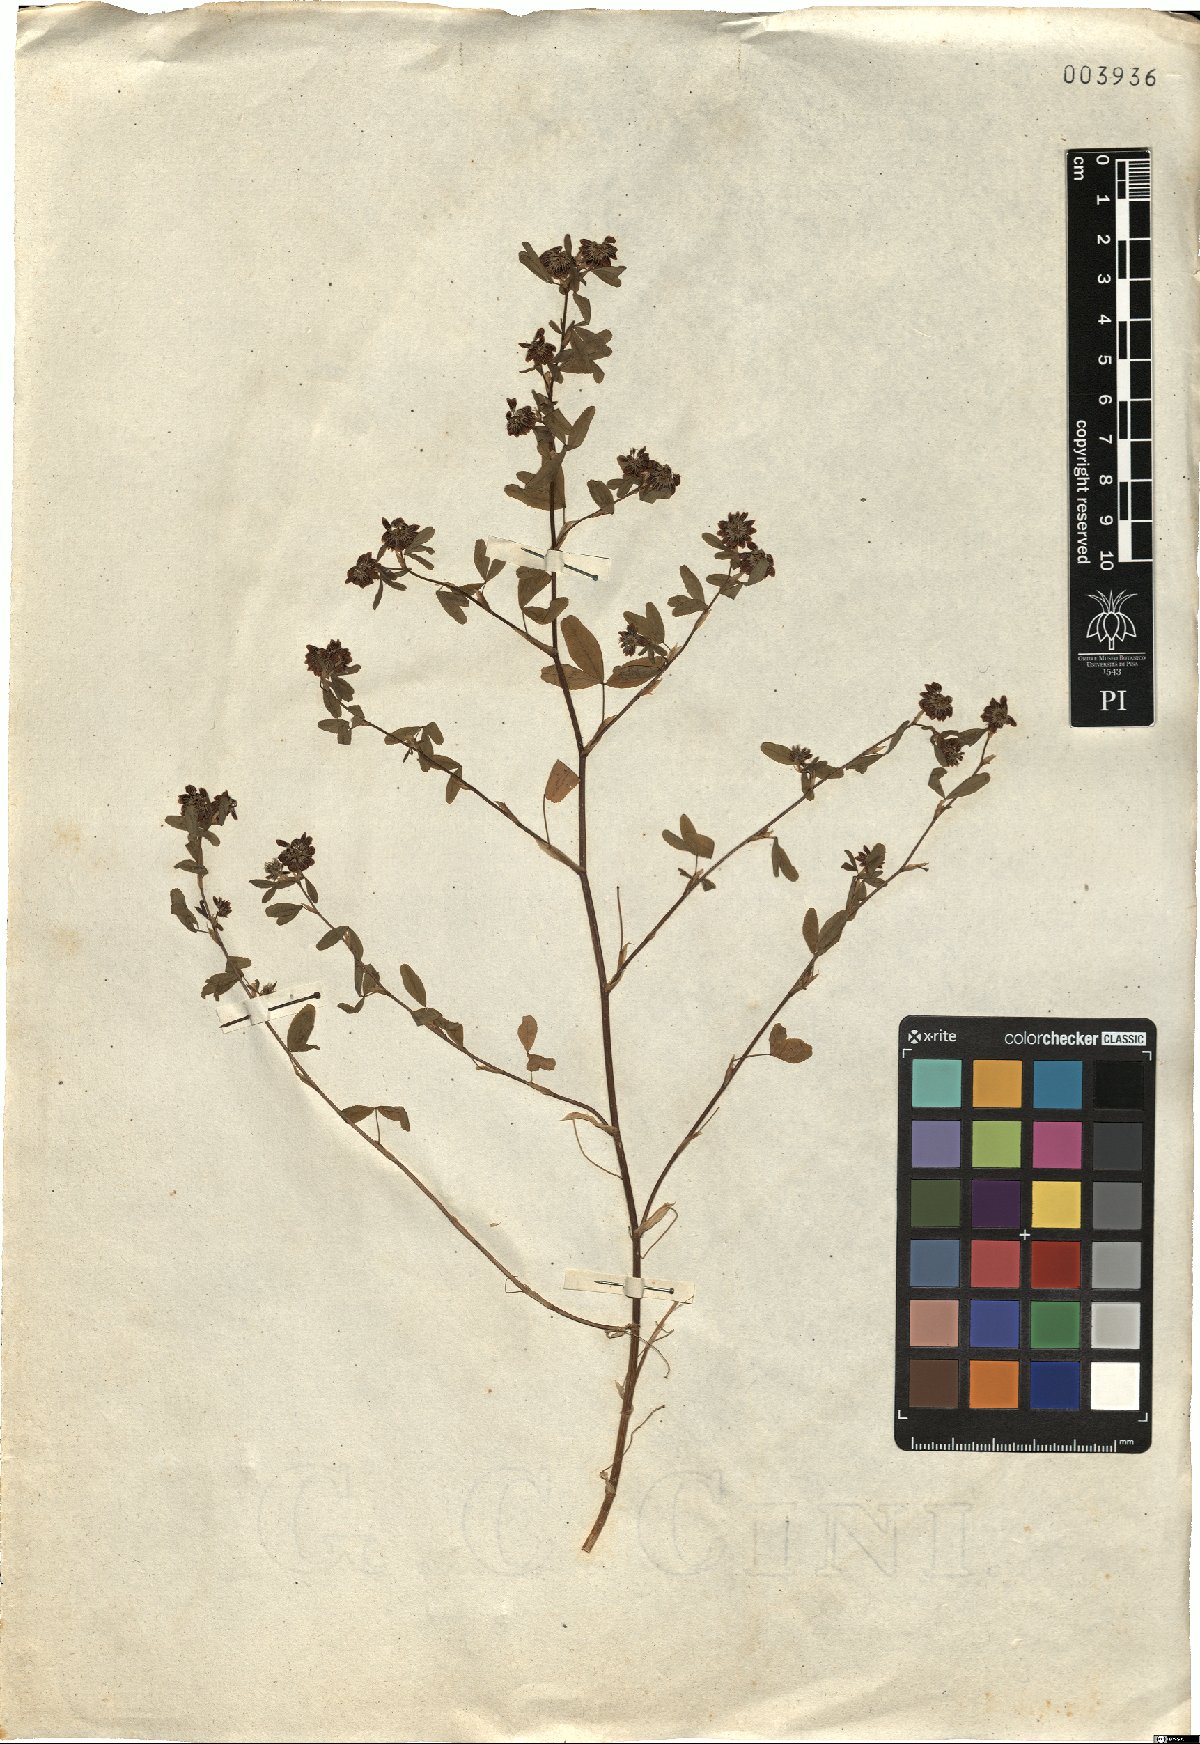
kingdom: Plantae
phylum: Tracheophyta
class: Magnoliopsida
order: Fabales
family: Fabaceae
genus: Trifolium
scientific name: Trifolium sebastiani
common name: Sebastian's clover
